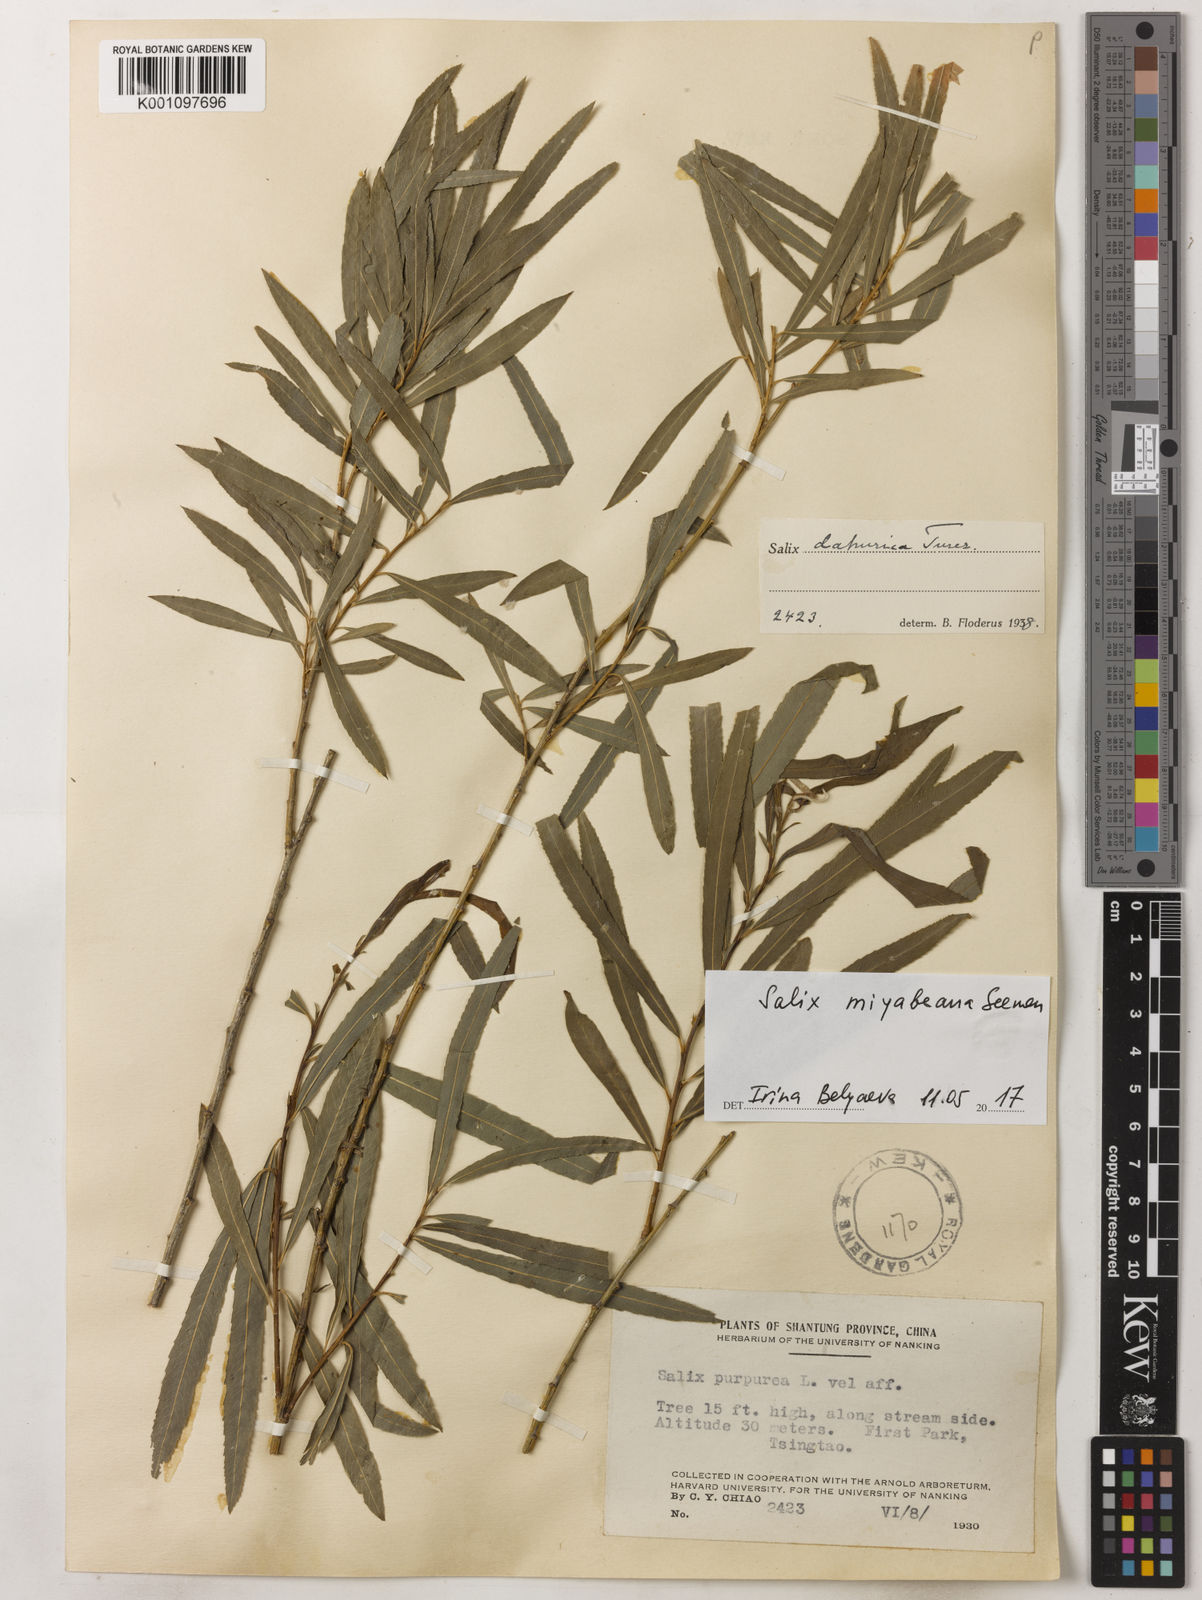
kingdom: Plantae
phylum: Tracheophyta
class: Magnoliopsida
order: Malpighiales
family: Salicaceae
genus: Salix
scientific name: Salix miyabeana
